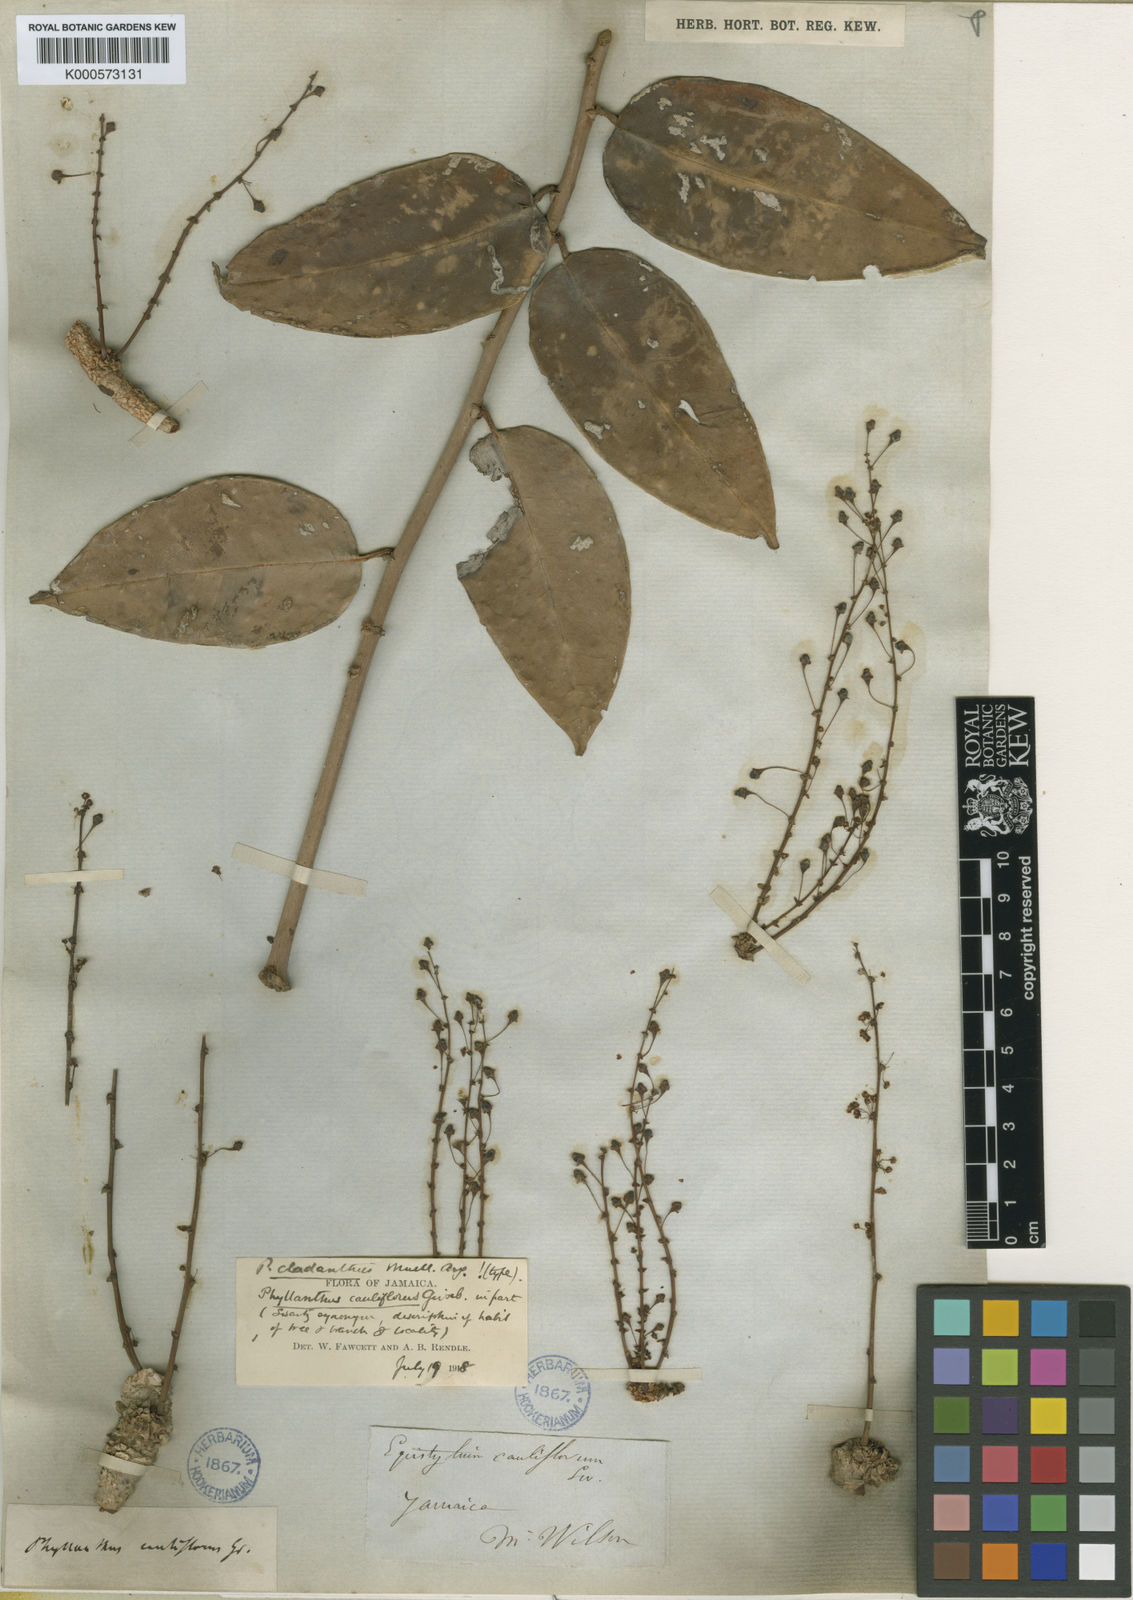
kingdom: Plantae
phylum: Tracheophyta
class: Magnoliopsida
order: Malpighiales
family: Phyllanthaceae
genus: Phyllanthus
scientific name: Phyllanthus
